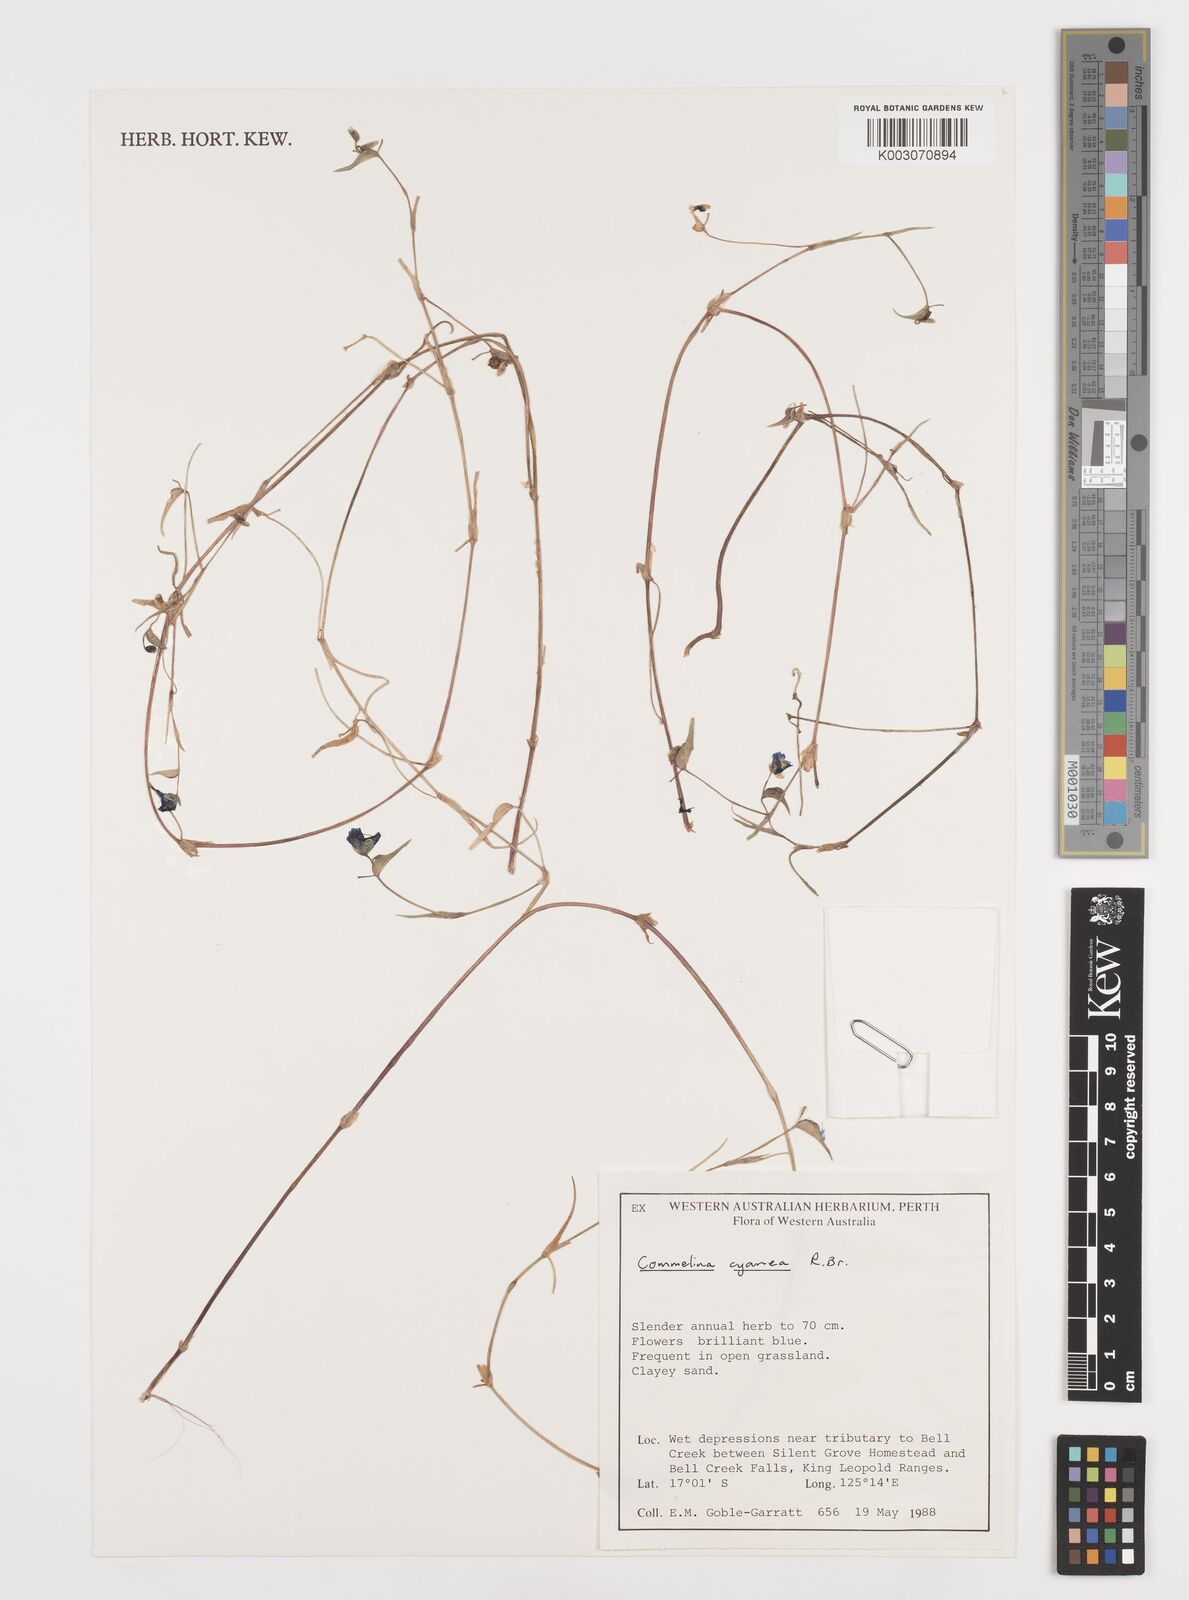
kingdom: Plantae
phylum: Tracheophyta
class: Liliopsida
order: Commelinales
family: Commelinaceae
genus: Commelina
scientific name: Commelina cyanea
